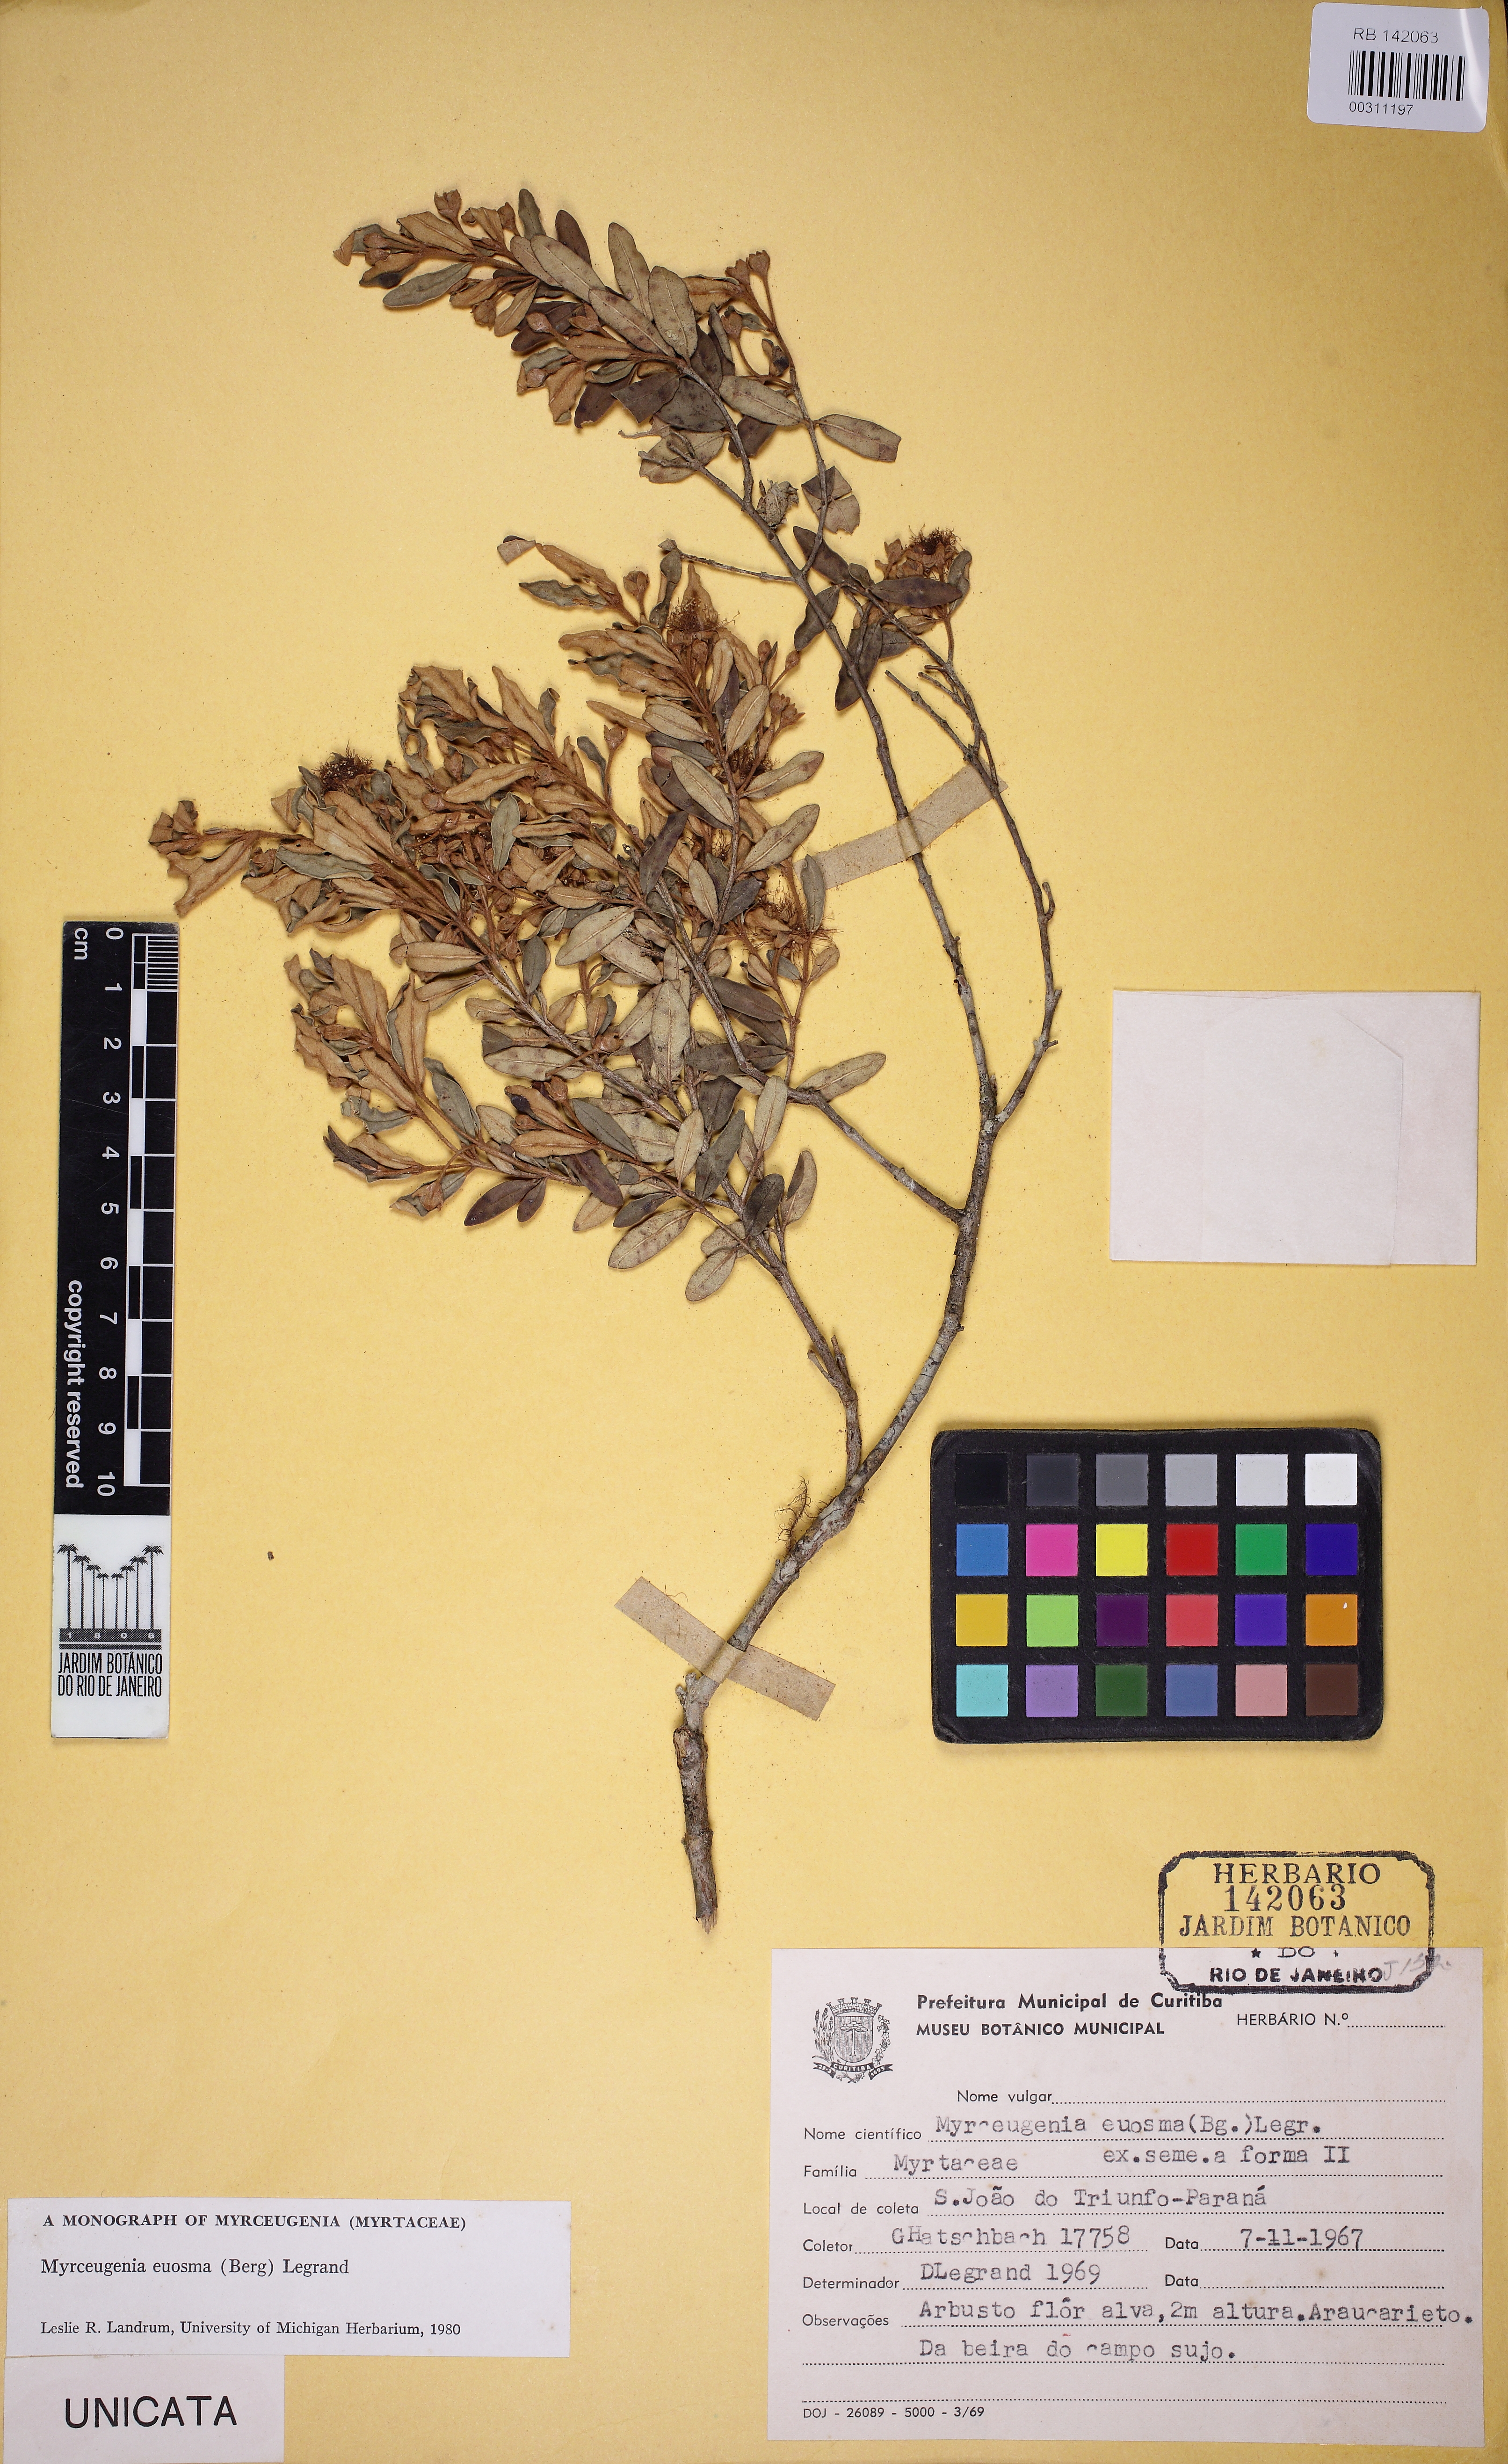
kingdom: Plantae
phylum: Tracheophyta
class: Magnoliopsida
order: Myrtales
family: Myrtaceae
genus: Myrceugenia
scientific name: Myrceugenia euosma
